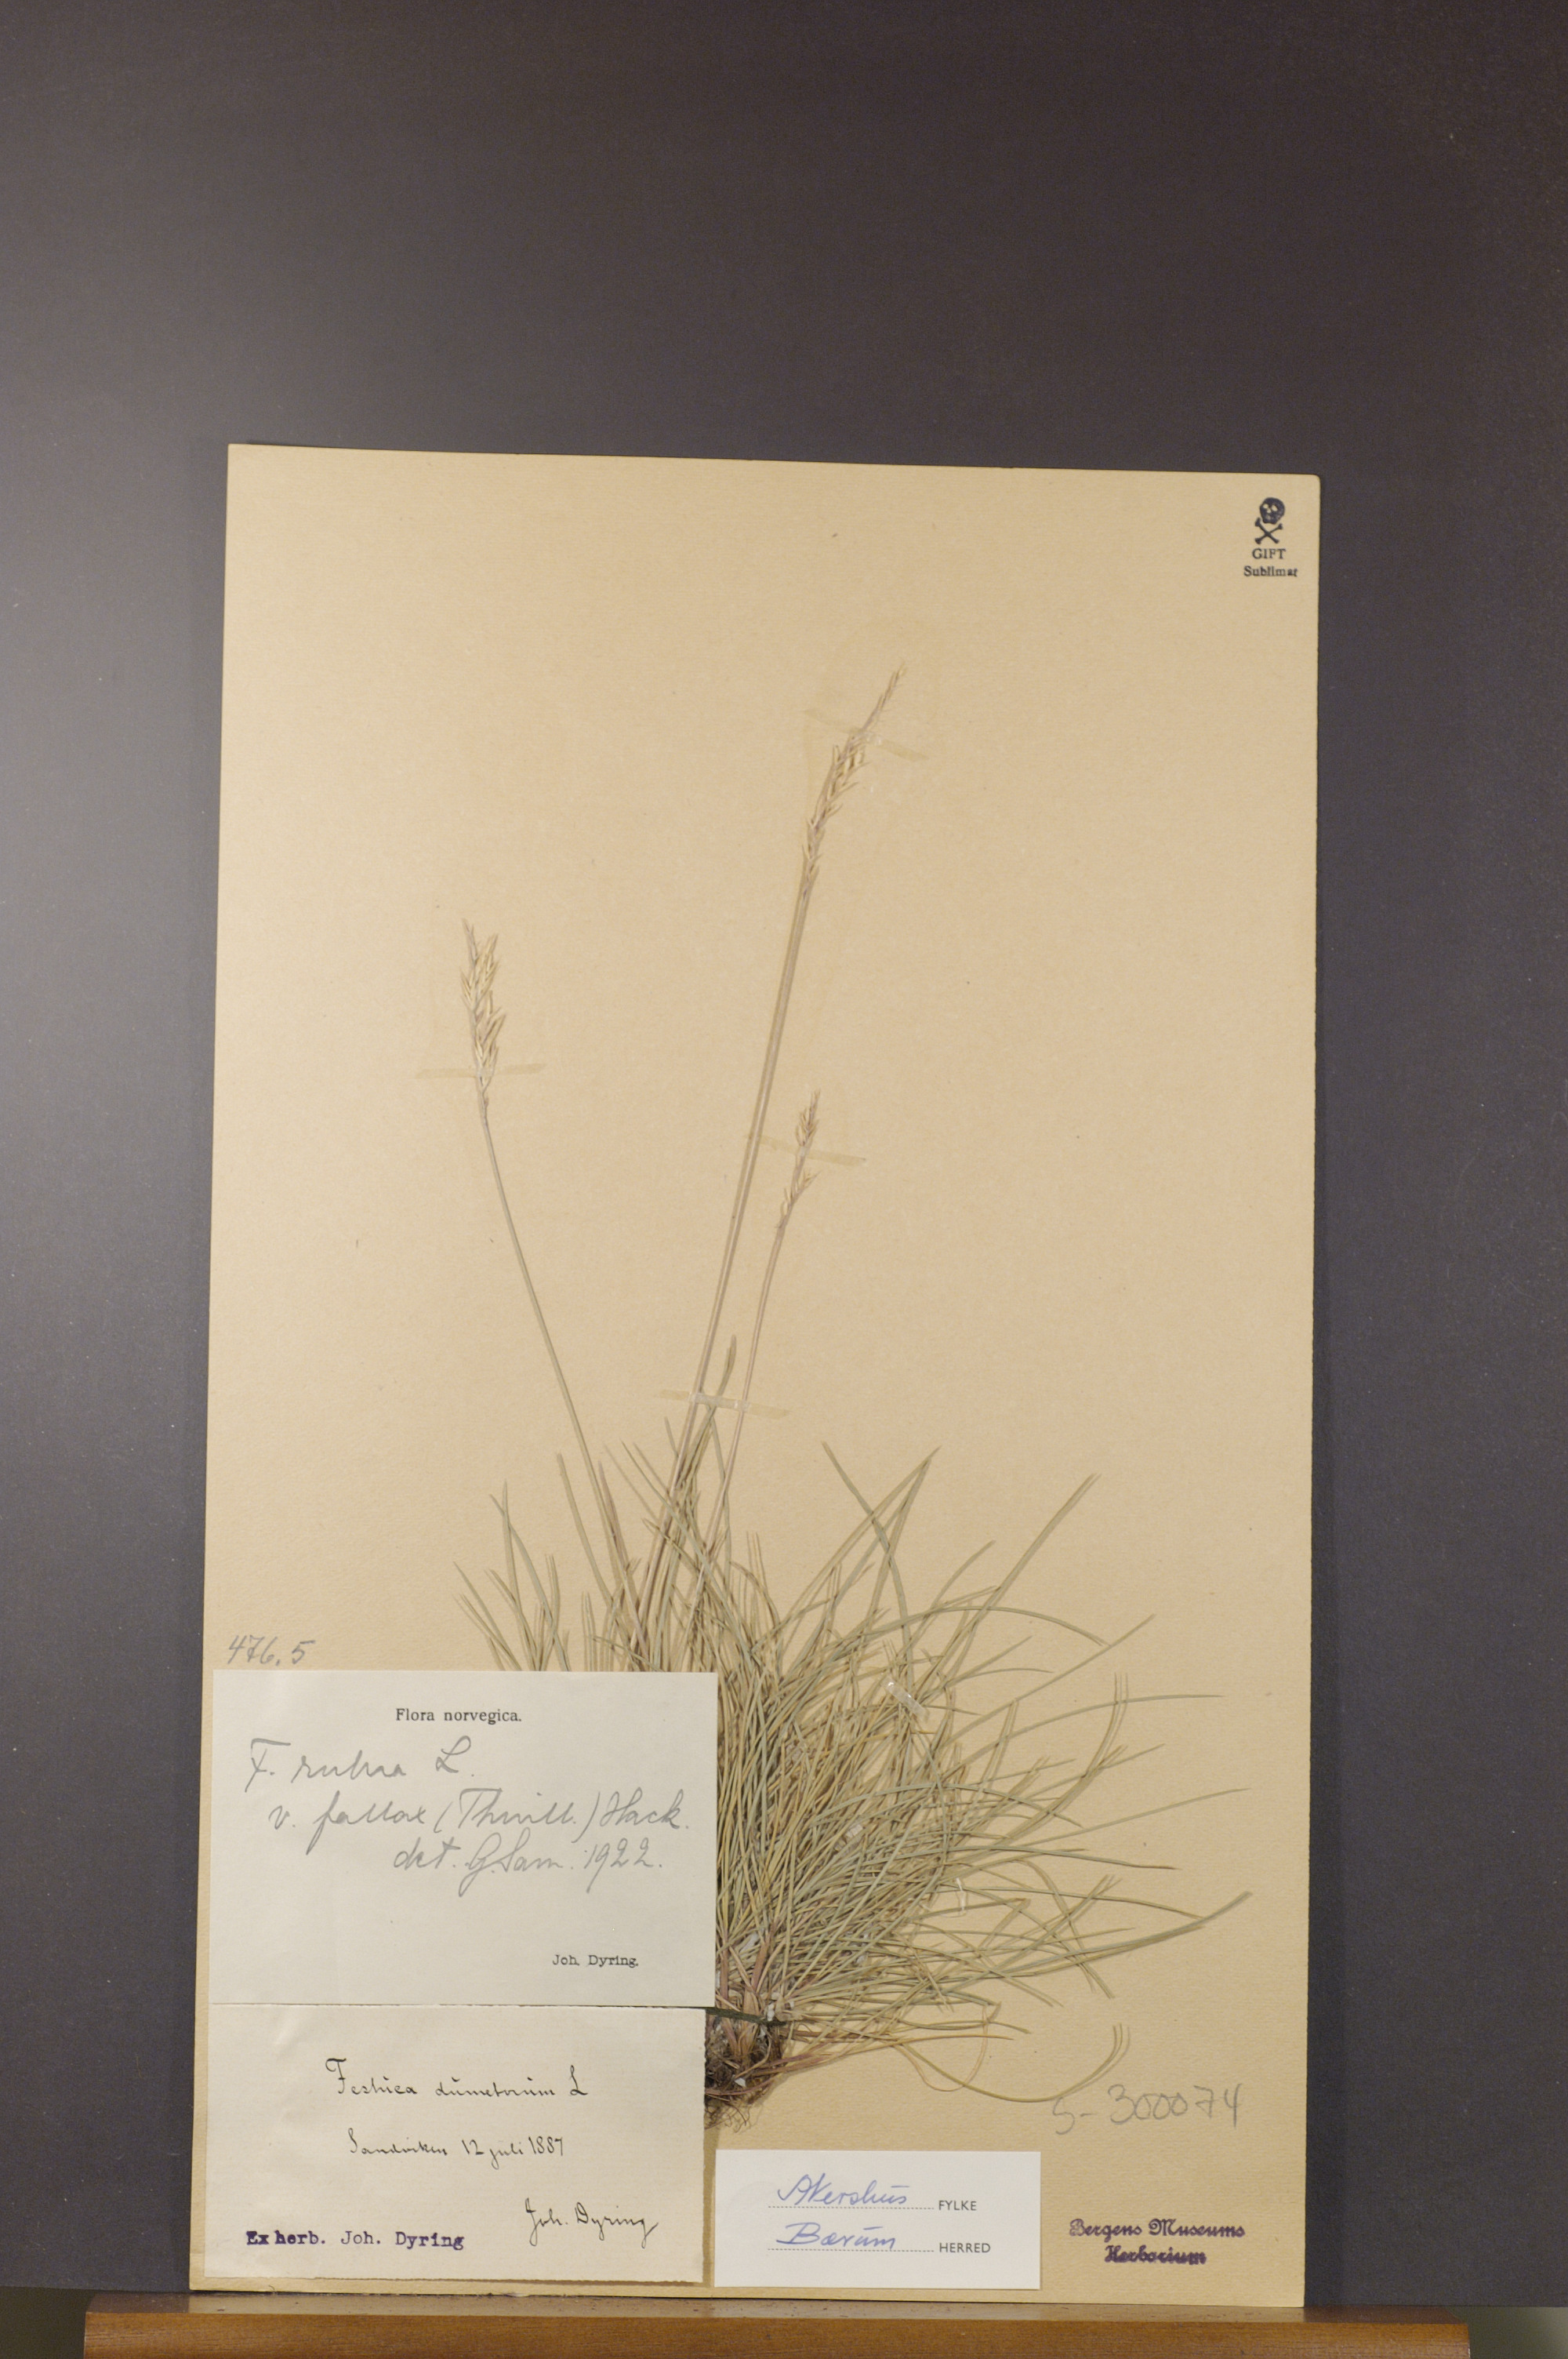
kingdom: Plantae
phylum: Tracheophyta
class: Liliopsida
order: Poales
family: Poaceae
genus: Festuca
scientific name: Festuca rubra
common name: Red fescue
